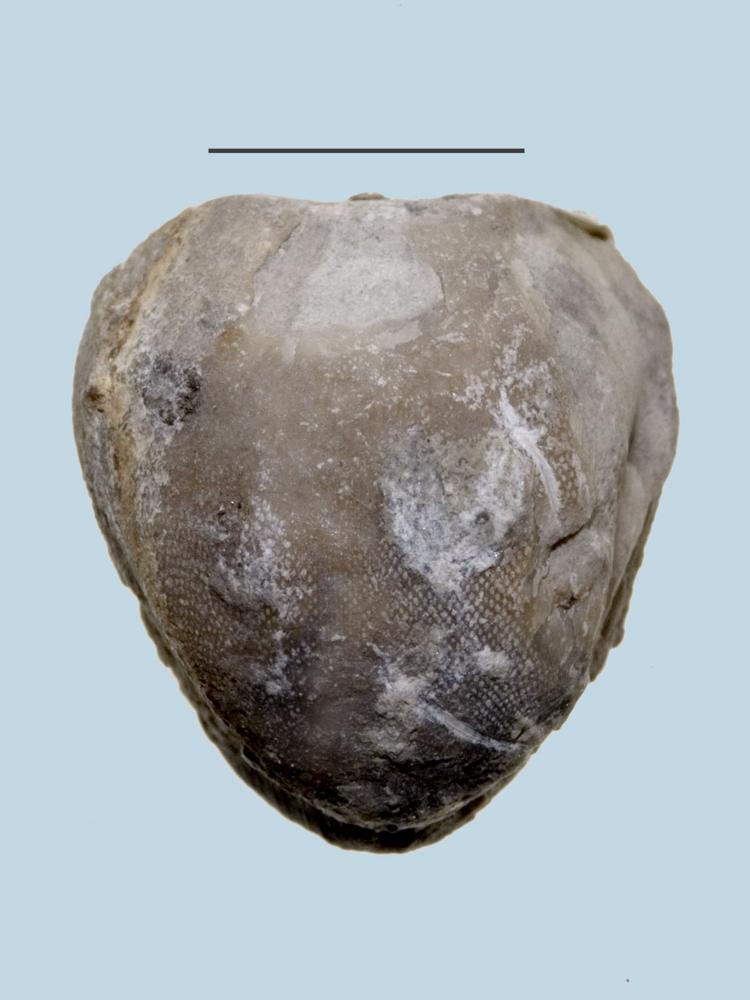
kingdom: Animalia
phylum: Brachiopoda
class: Rhynchonellata
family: Porambonitidae
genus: Porambonites
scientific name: Porambonites
